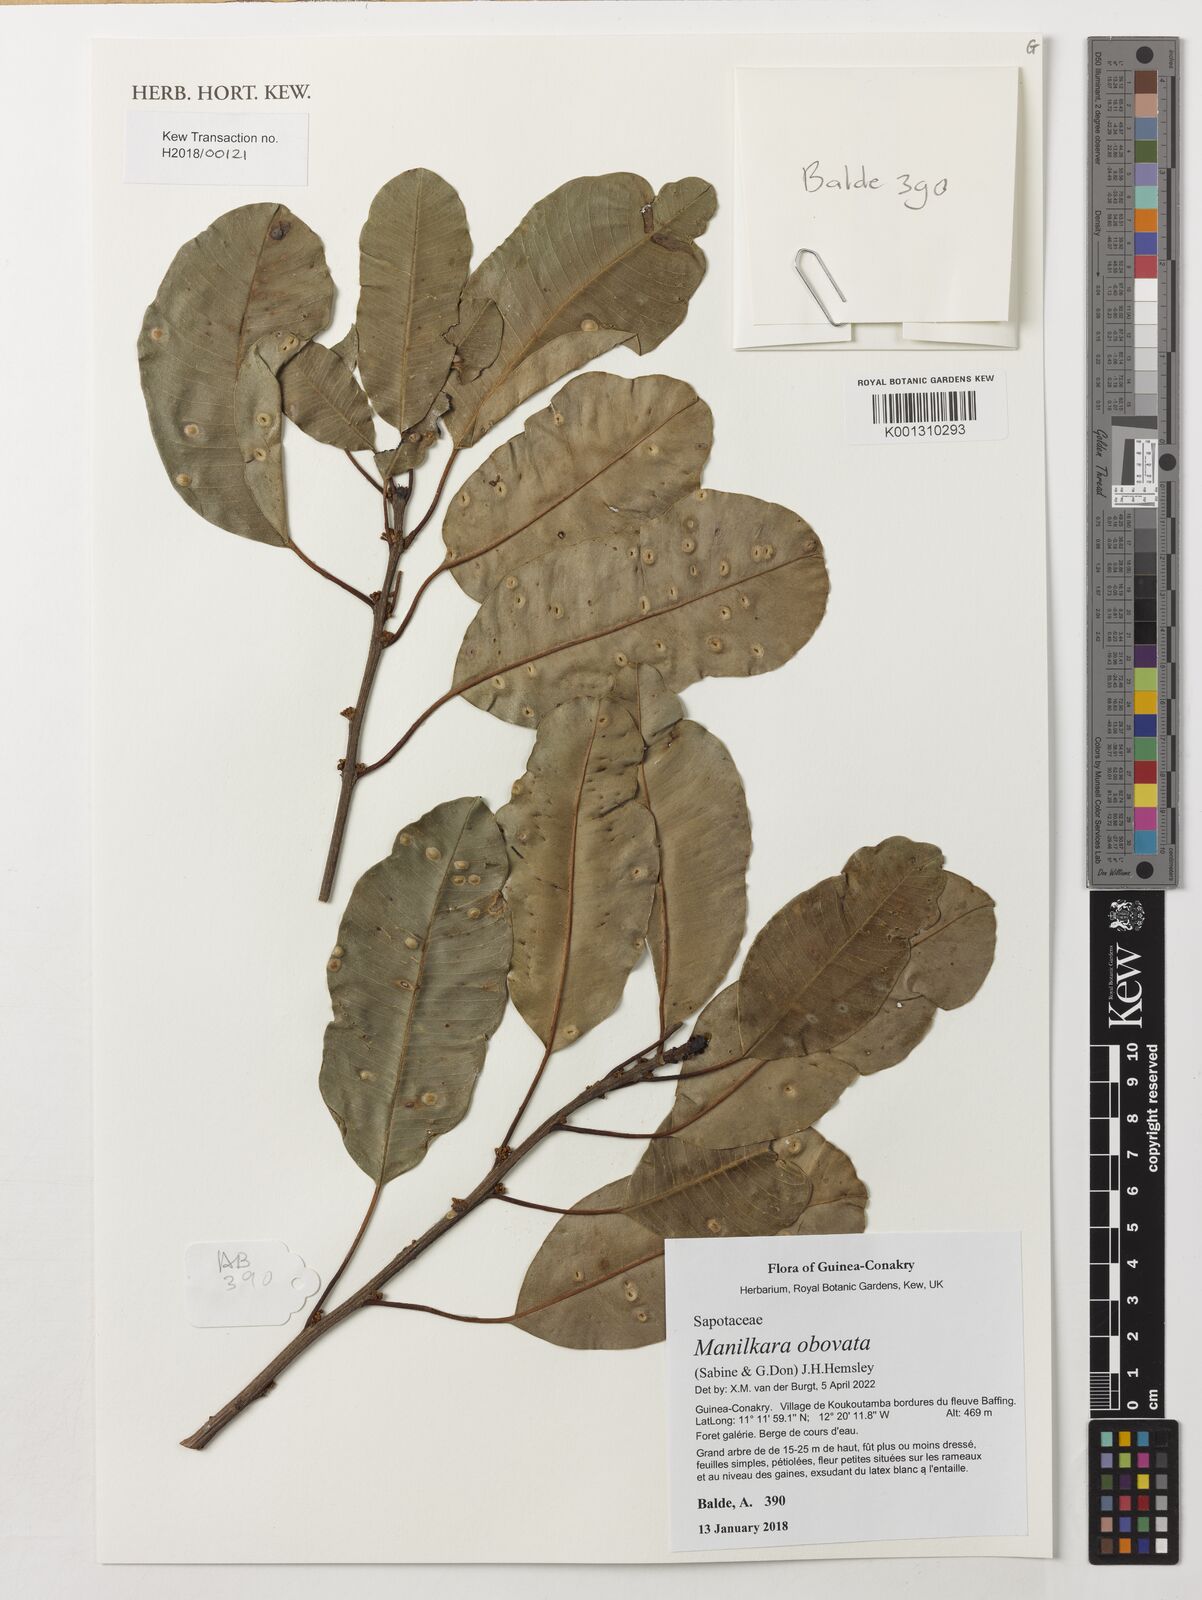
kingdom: Plantae
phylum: Tracheophyta
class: Magnoliopsida
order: Ericales
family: Sapotaceae
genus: Manilkara
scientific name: Manilkara obovata
